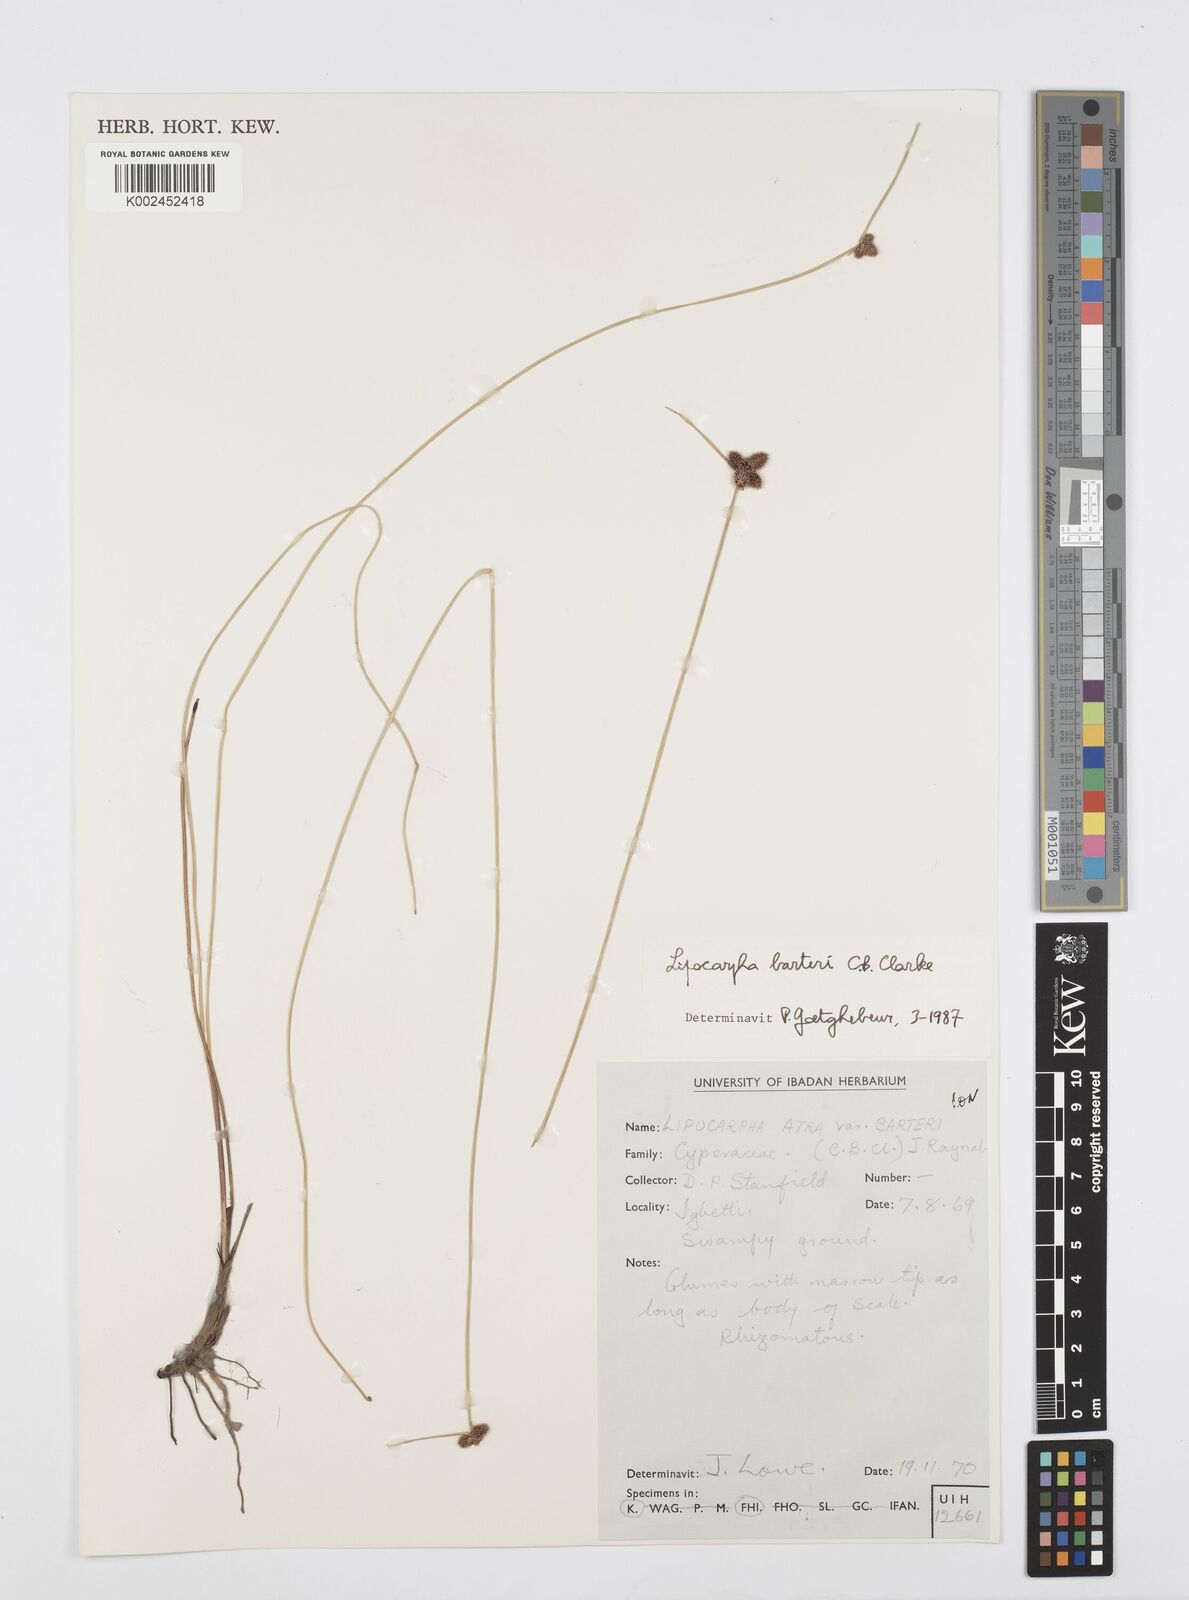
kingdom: Plantae
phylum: Tracheophyta
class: Liliopsida
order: Poales
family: Cyperaceae
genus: Cyperus
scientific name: Cyperus pustulatus
